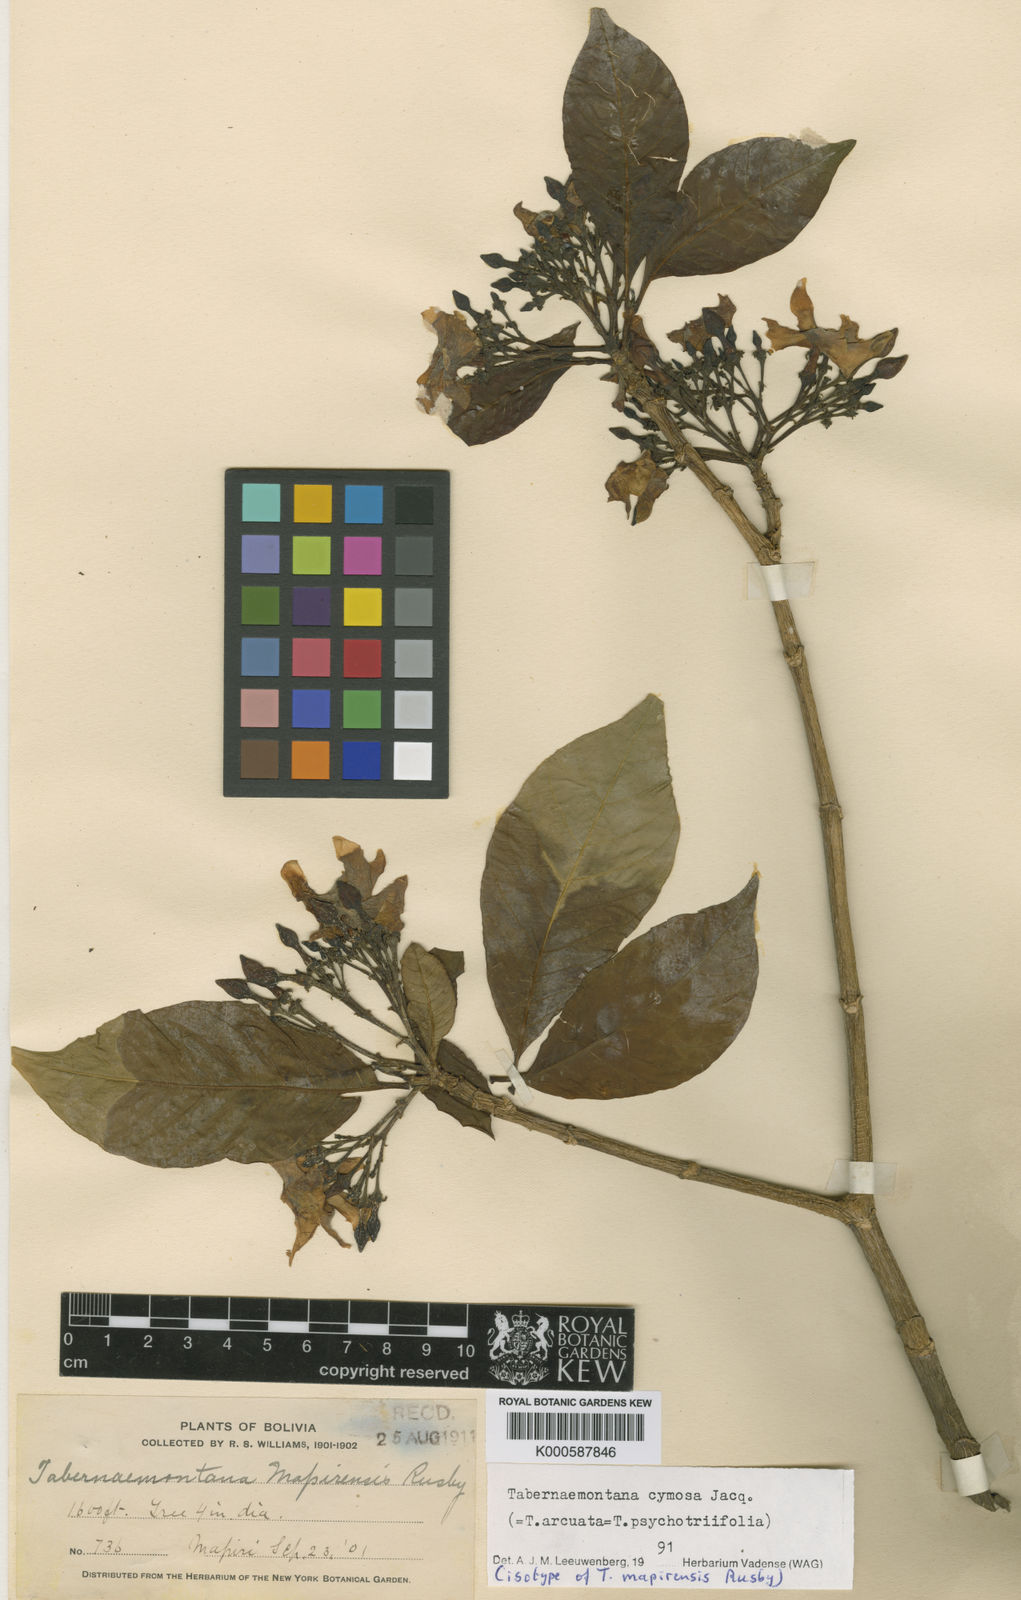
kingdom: Plantae
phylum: Tracheophyta
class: Magnoliopsida
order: Gentianales
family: Apocynaceae
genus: Tabernaemontana
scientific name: Tabernaemontana cymosa
